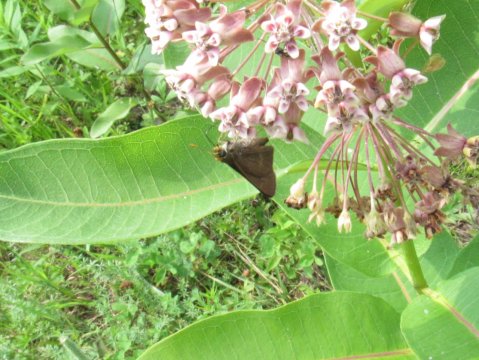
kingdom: Animalia
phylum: Arthropoda
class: Insecta
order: Lepidoptera
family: Hesperiidae
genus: Euphyes
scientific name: Euphyes vestris
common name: Dun Skipper
